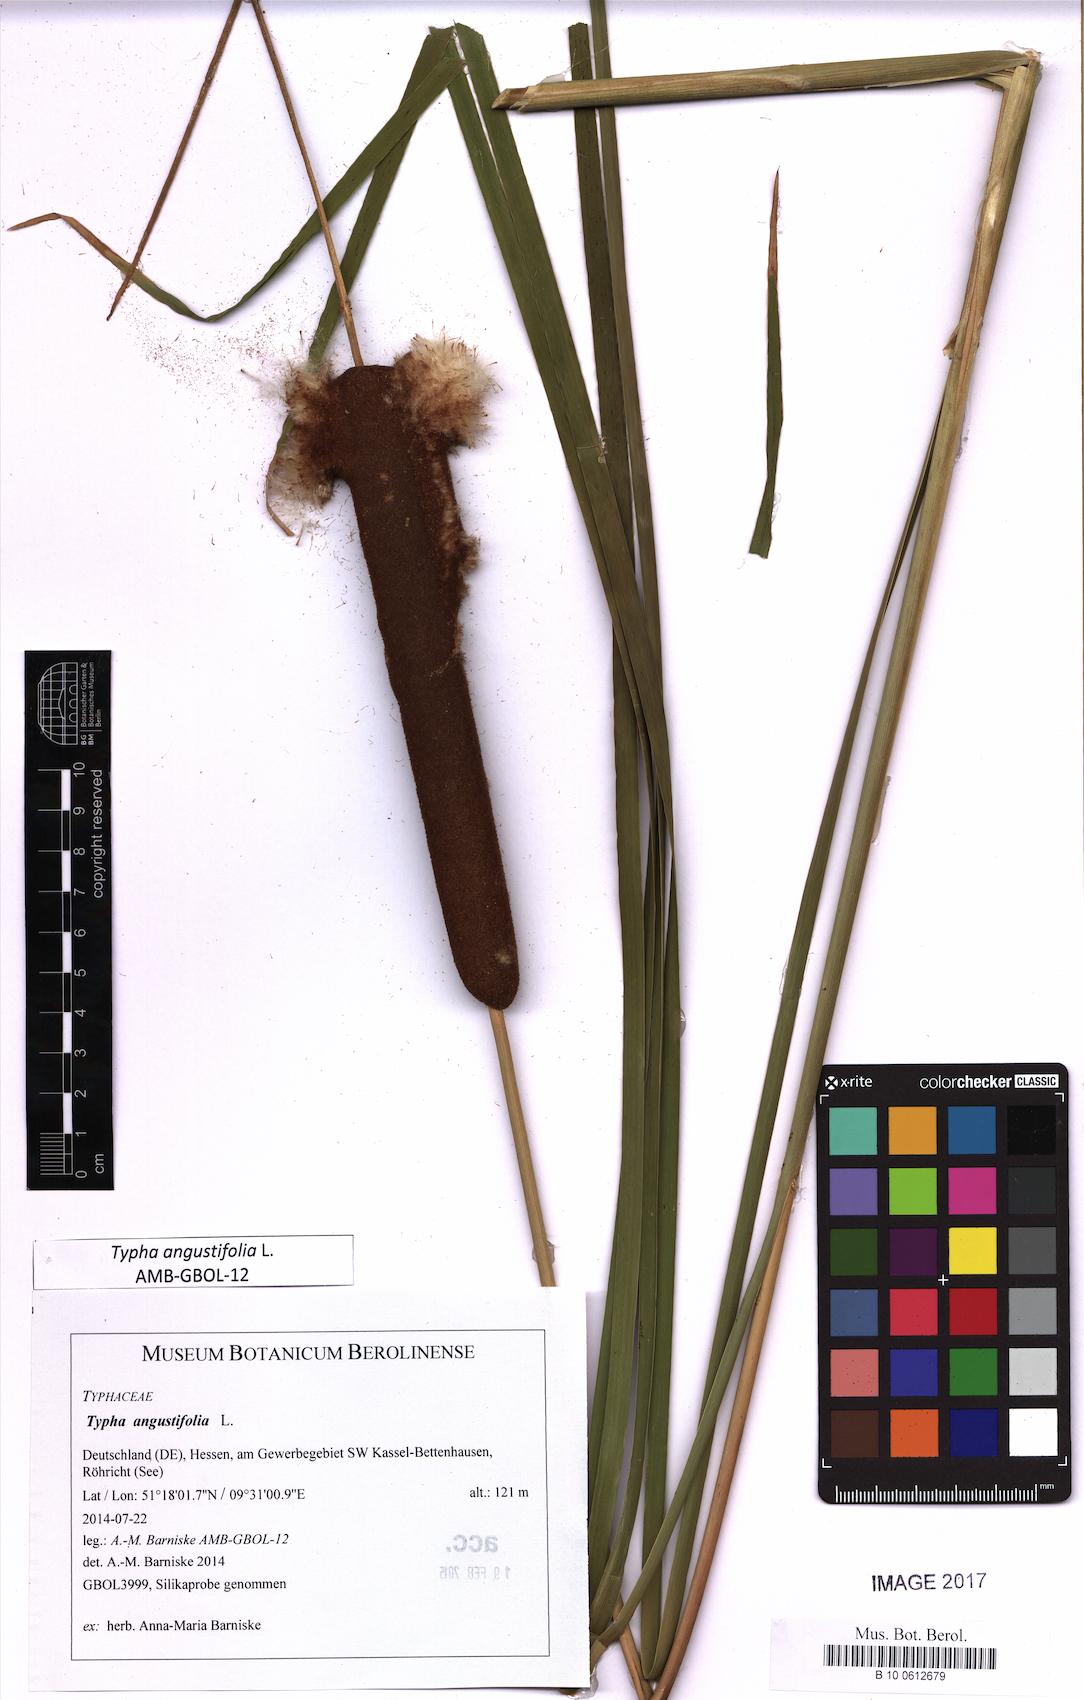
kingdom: Plantae
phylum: Tracheophyta
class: Liliopsida
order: Poales
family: Typhaceae
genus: Typha
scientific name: Typha angustifolia
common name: Lesser bulrush
